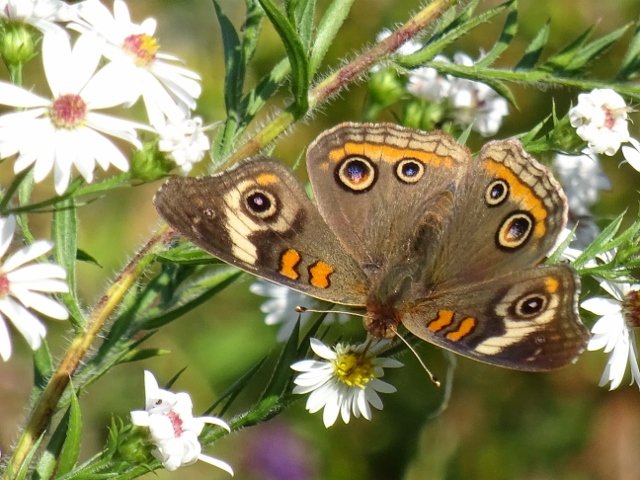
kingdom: Animalia
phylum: Arthropoda
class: Insecta
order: Lepidoptera
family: Nymphalidae
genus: Junonia
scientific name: Junonia coenia
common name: Common Buckeye
